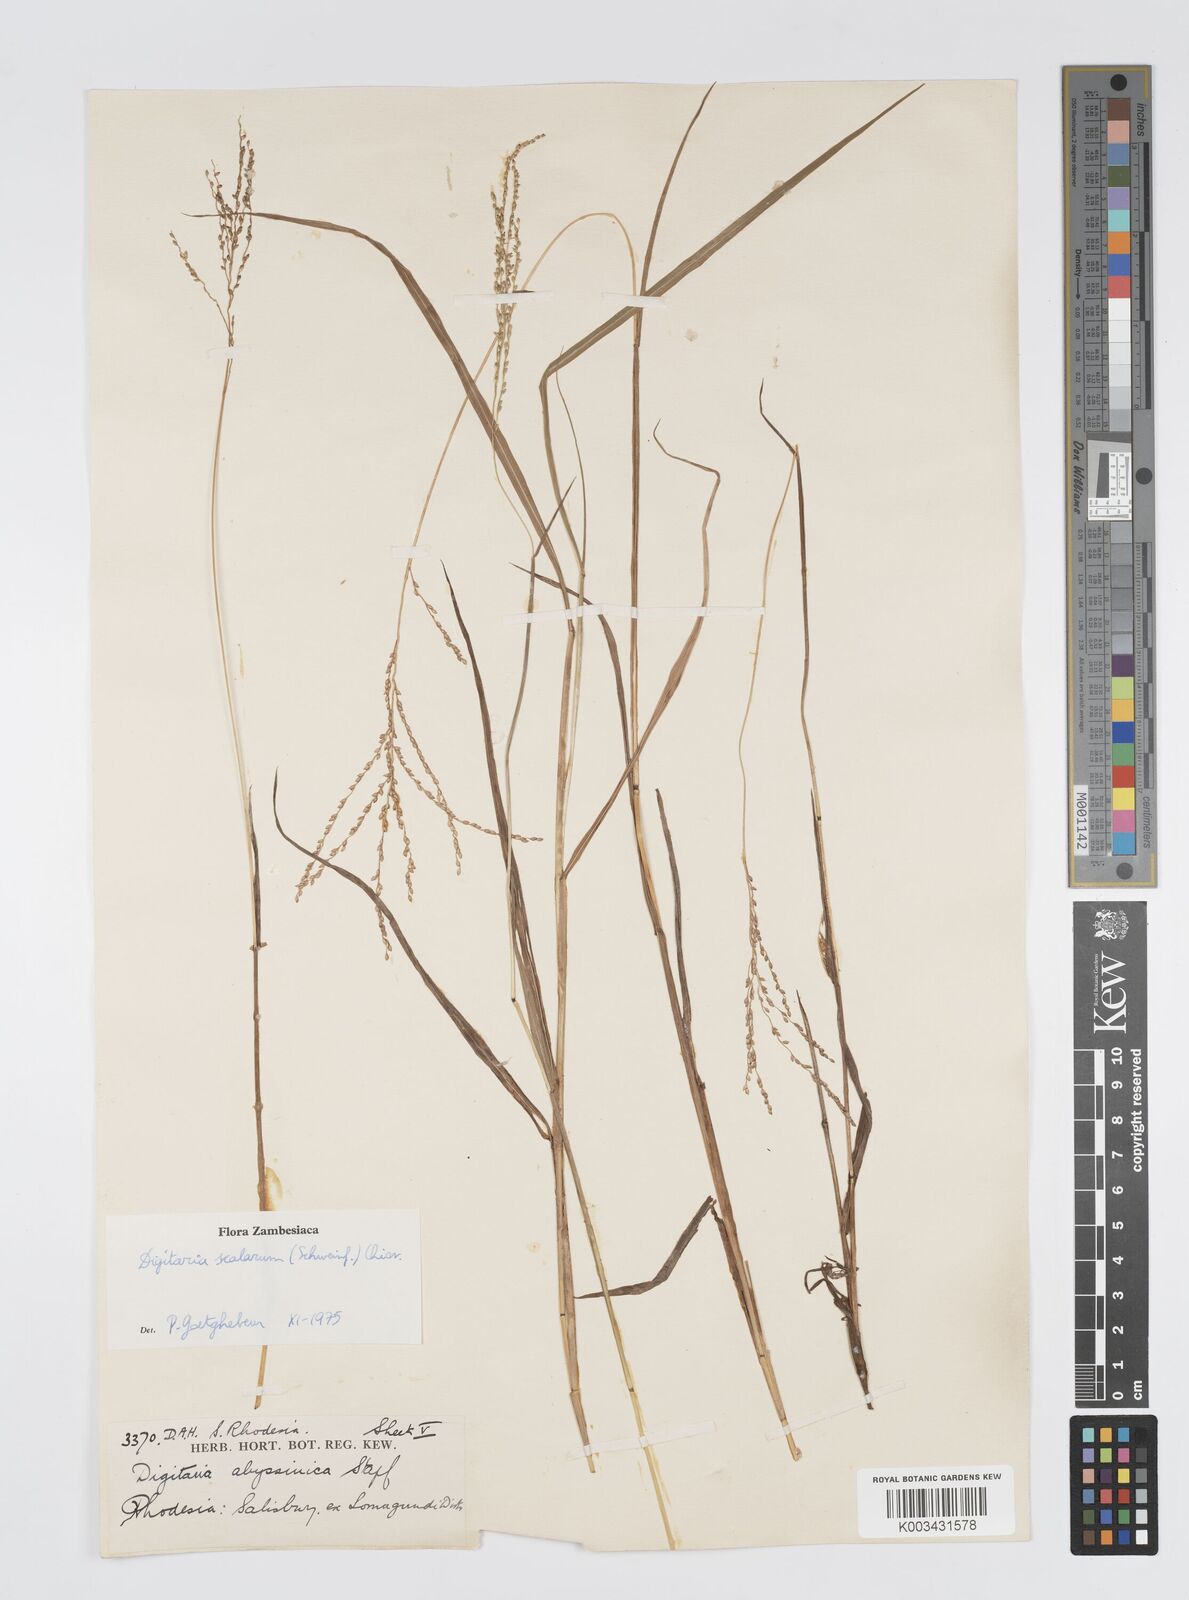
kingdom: Plantae
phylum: Tracheophyta
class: Liliopsida
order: Poales
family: Poaceae
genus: Digitaria
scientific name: Digitaria abyssinica
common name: African couchgrass
